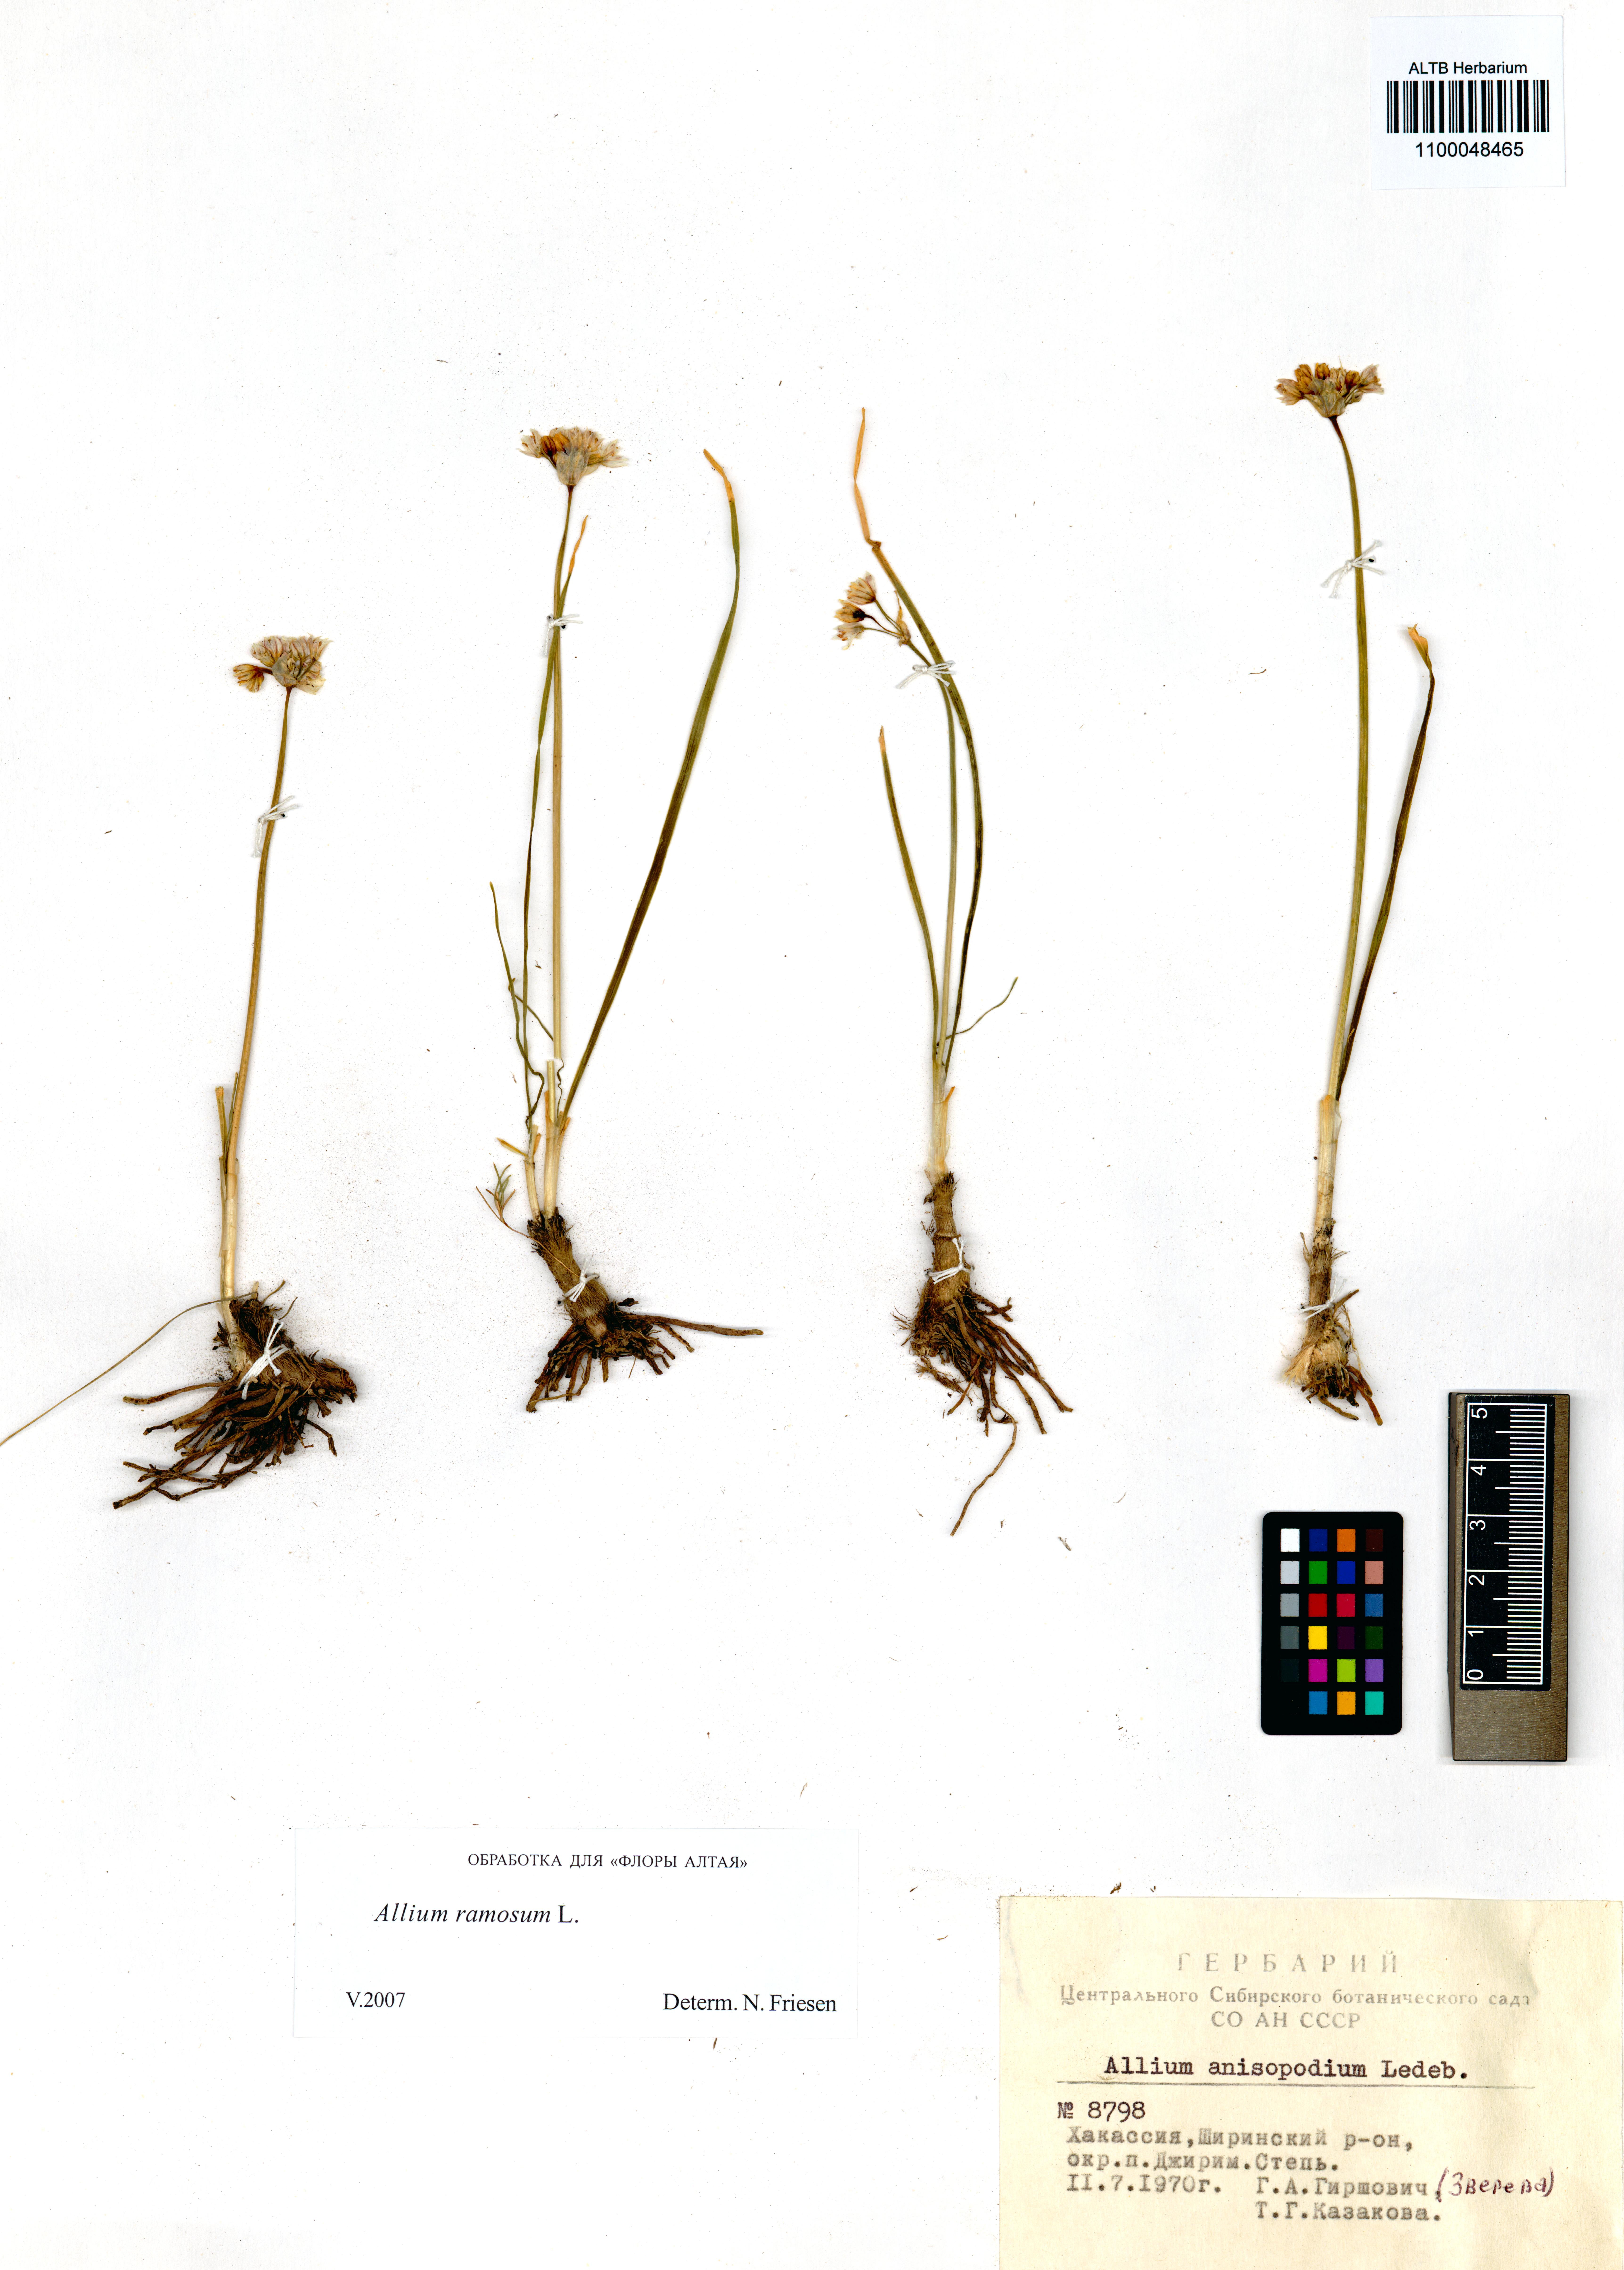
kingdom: Plantae
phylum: Tracheophyta
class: Liliopsida
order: Asparagales
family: Amaryllidaceae
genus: Allium
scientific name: Allium ramosum
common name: Fragrant garlic
